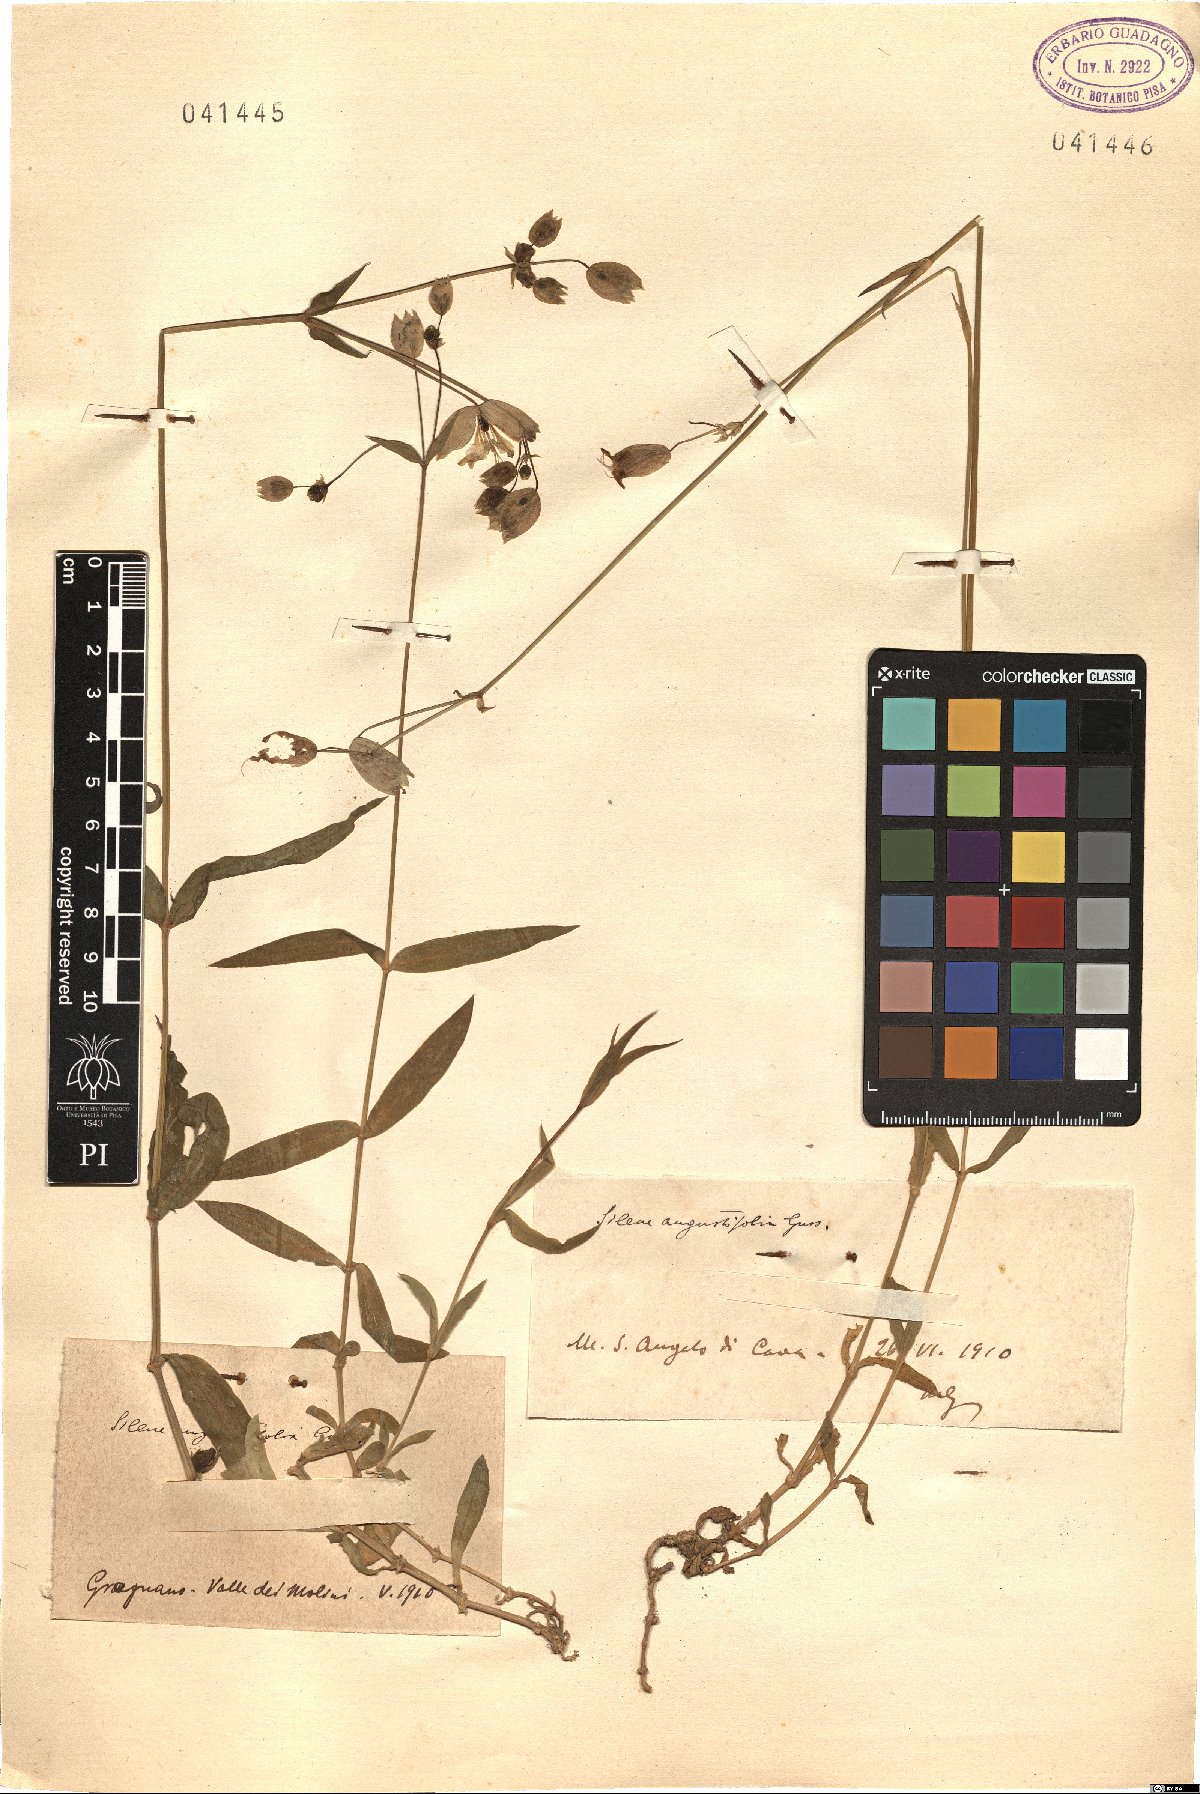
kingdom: Plantae
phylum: Tracheophyta
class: Magnoliopsida
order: Caryophyllales
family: Caryophyllaceae
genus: Silene
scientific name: Silene vulgaris
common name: Bladder campion
